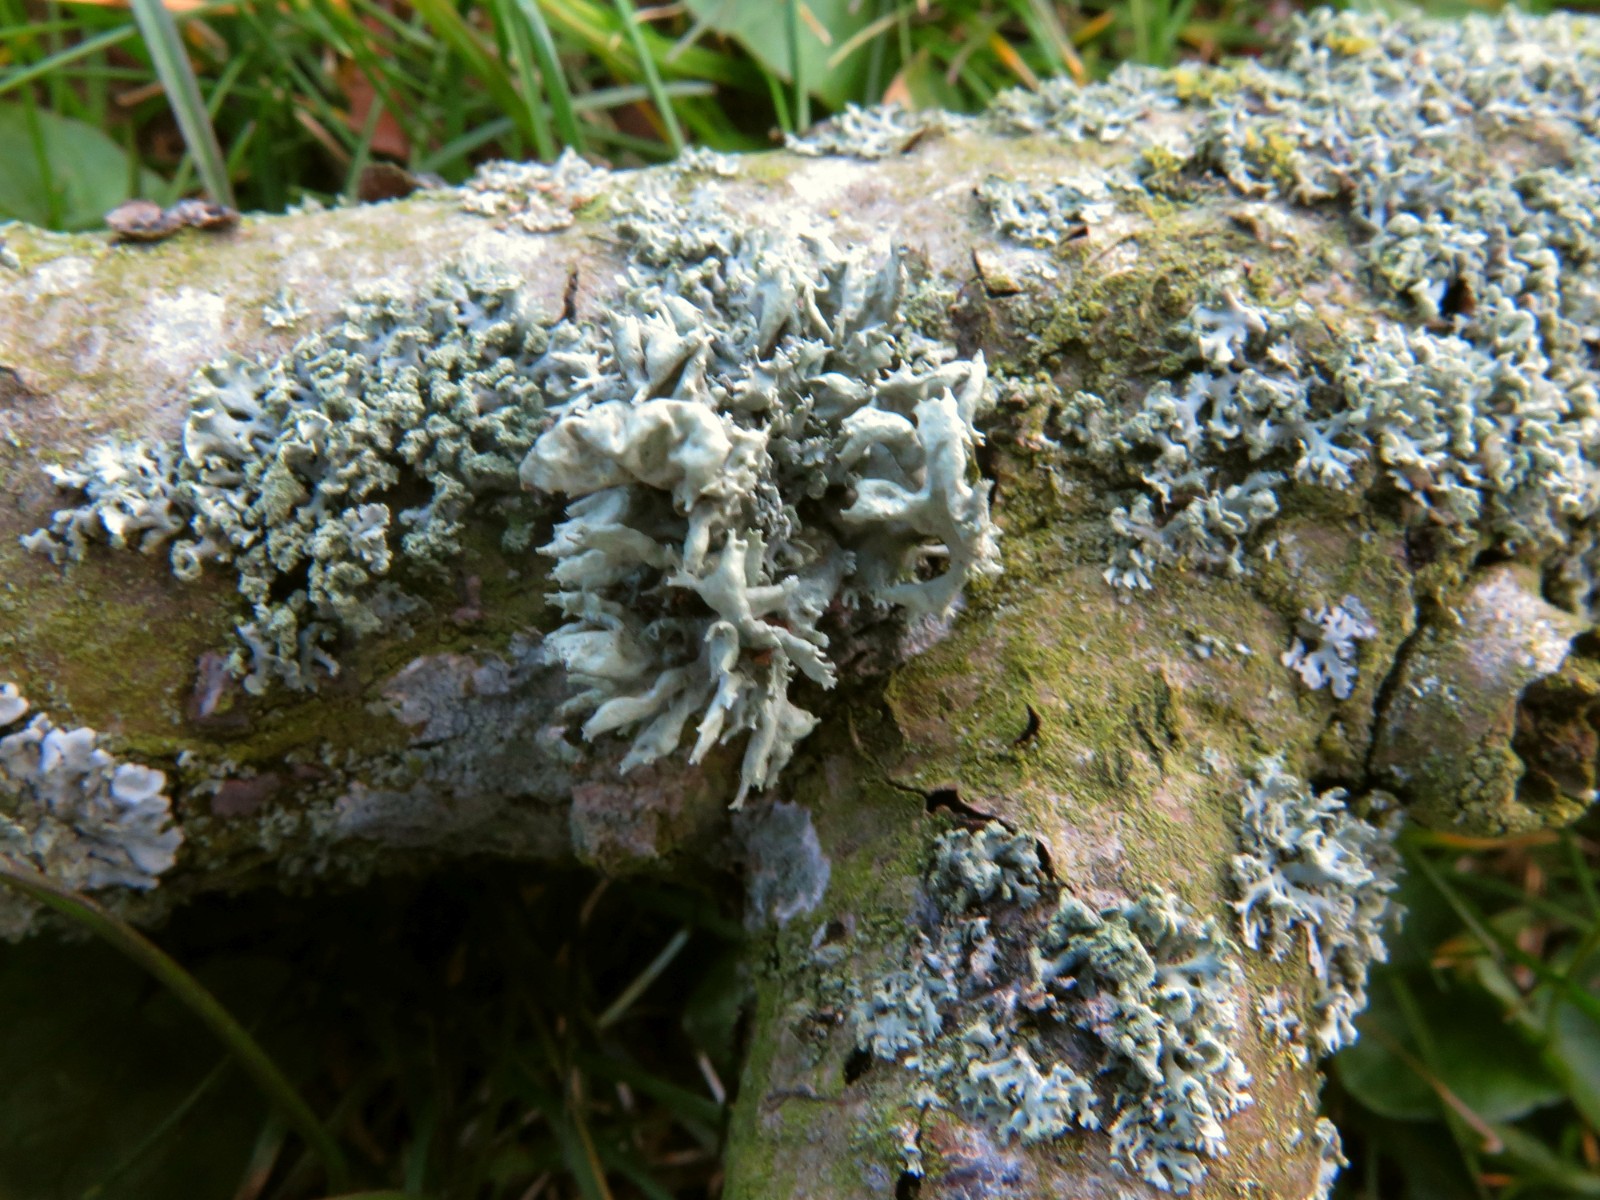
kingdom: Fungi
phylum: Ascomycota
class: Lecanoromycetes
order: Lecanorales
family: Parmeliaceae
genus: Evernia
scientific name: Evernia prunastri
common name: almindelig slåenlav
